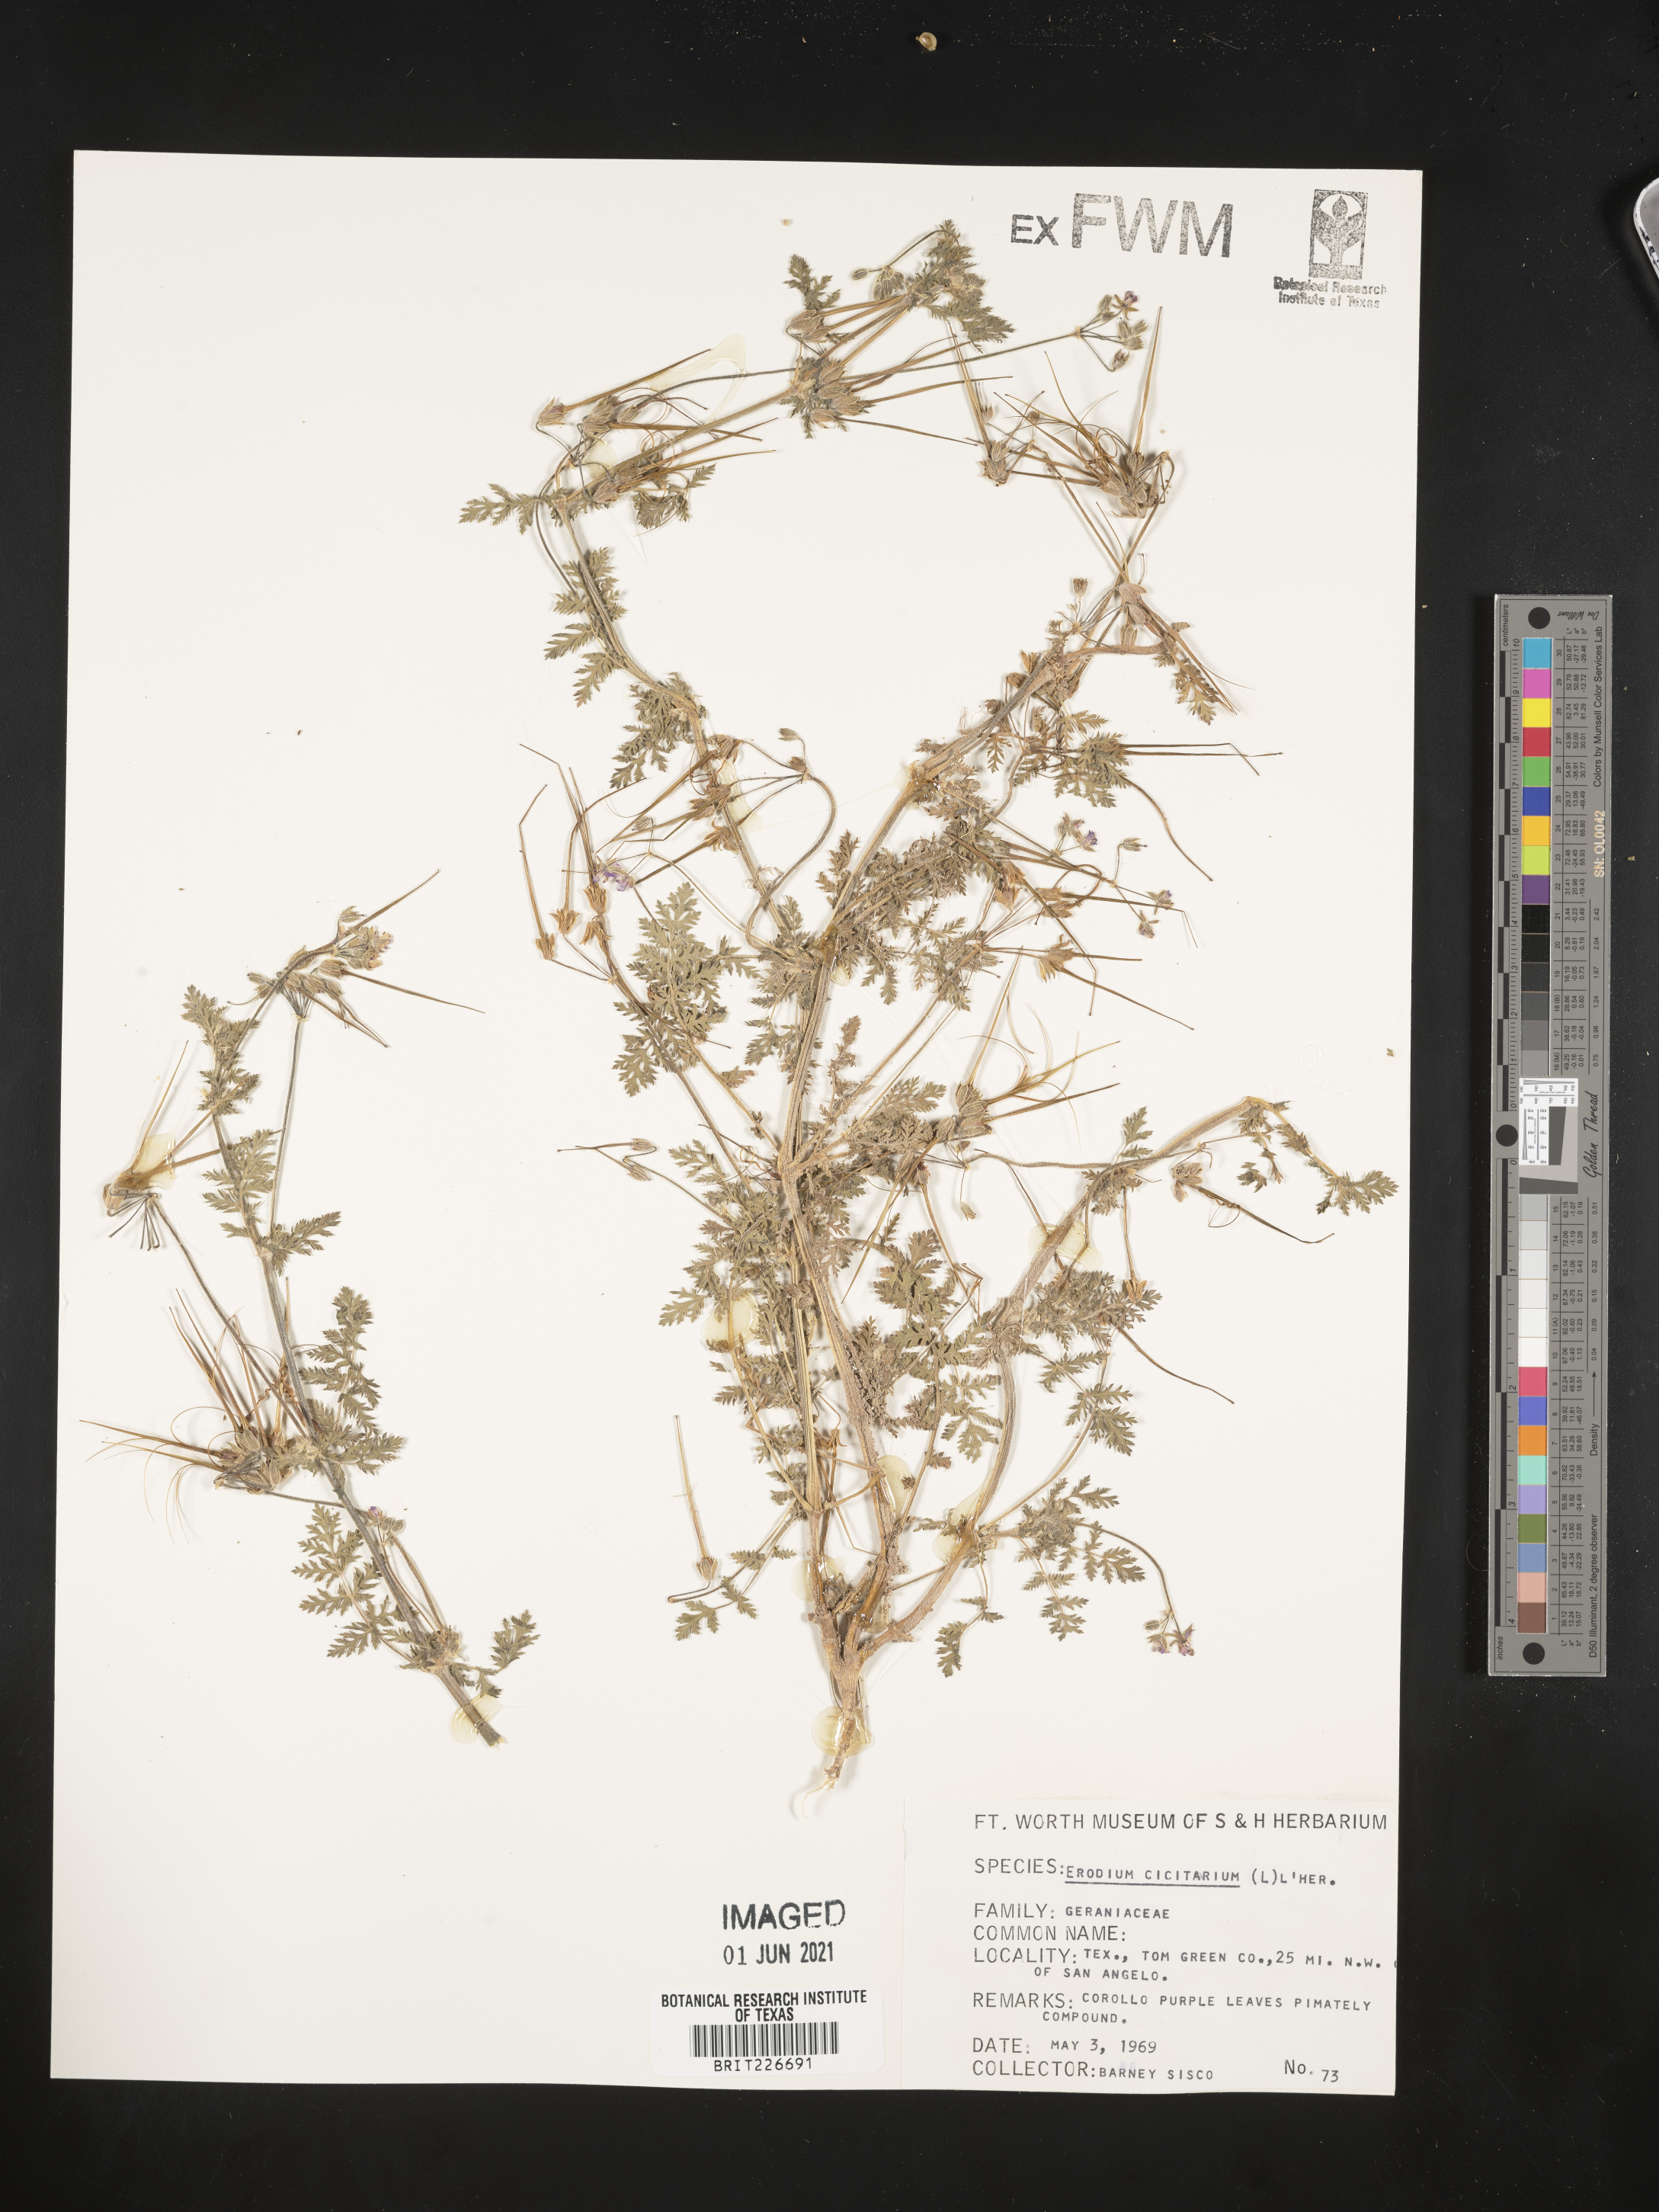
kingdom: Plantae
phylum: Tracheophyta
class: Magnoliopsida
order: Geraniales
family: Geraniaceae
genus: Erodium
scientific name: Erodium cicutarium
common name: Common stork's-bill
